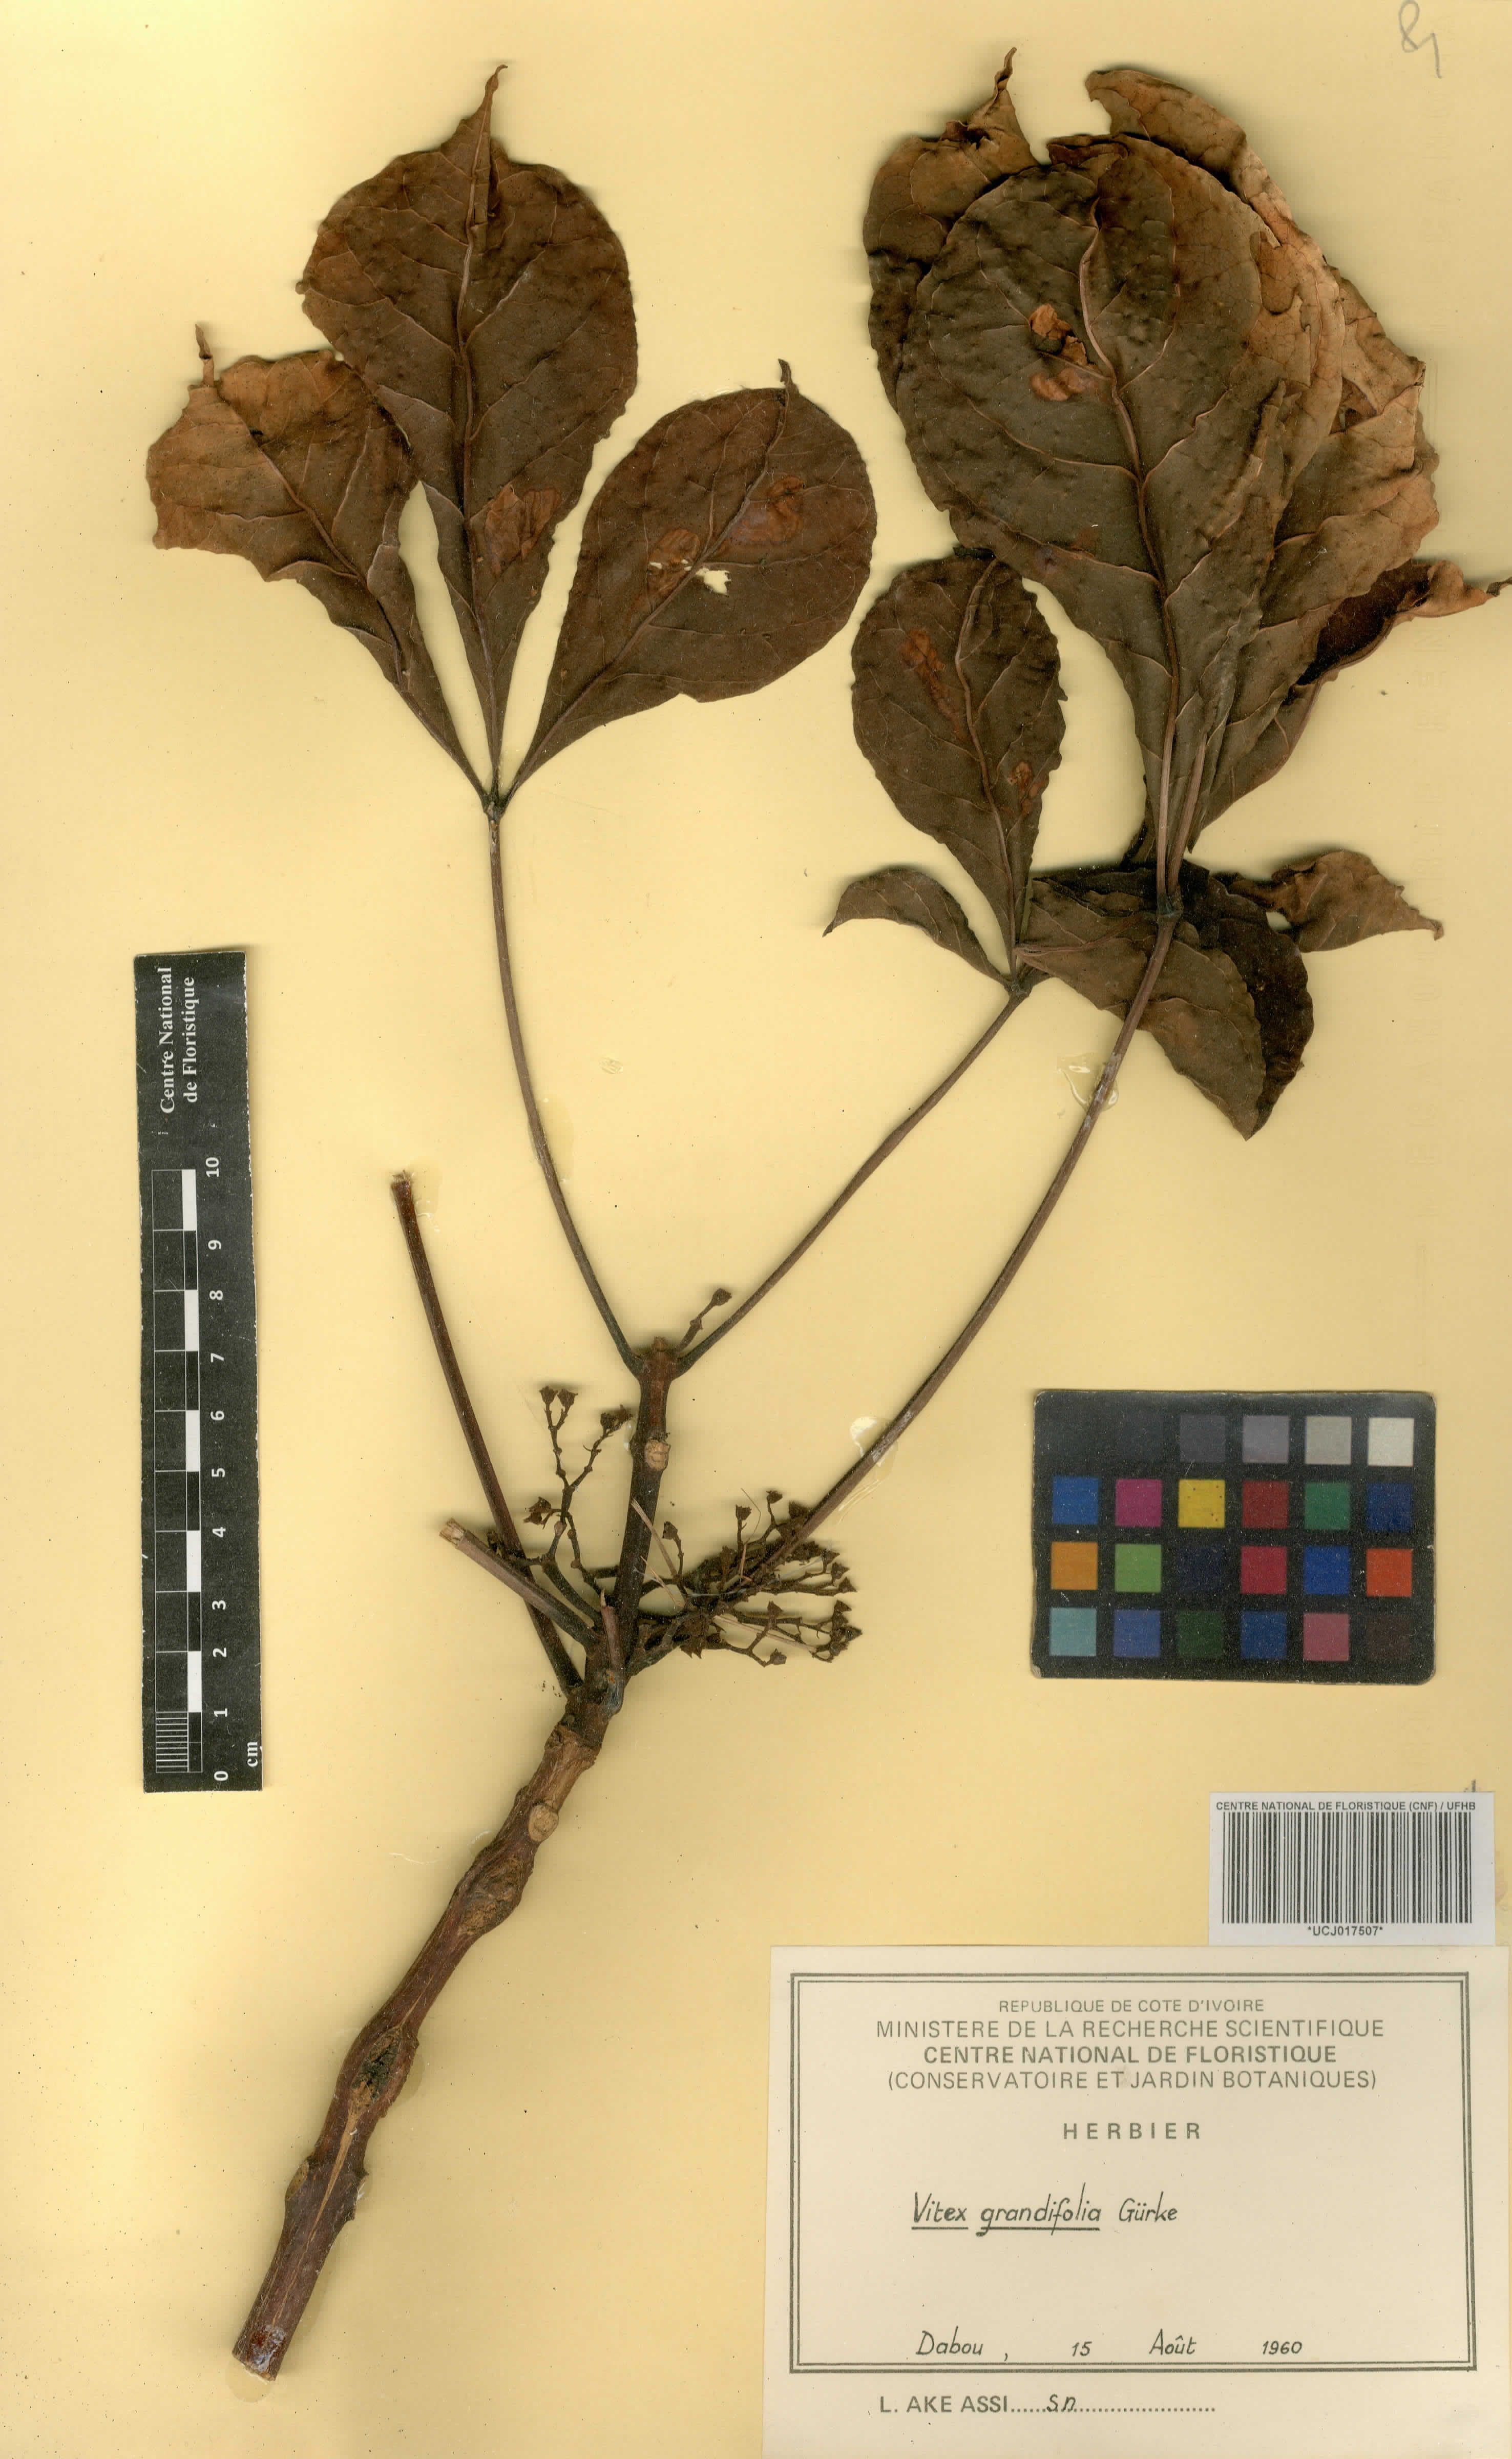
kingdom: Plantae
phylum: Tracheophyta
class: Magnoliopsida
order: Lamiales
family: Lamiaceae
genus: Vitex
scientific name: Vitex grandifolia
